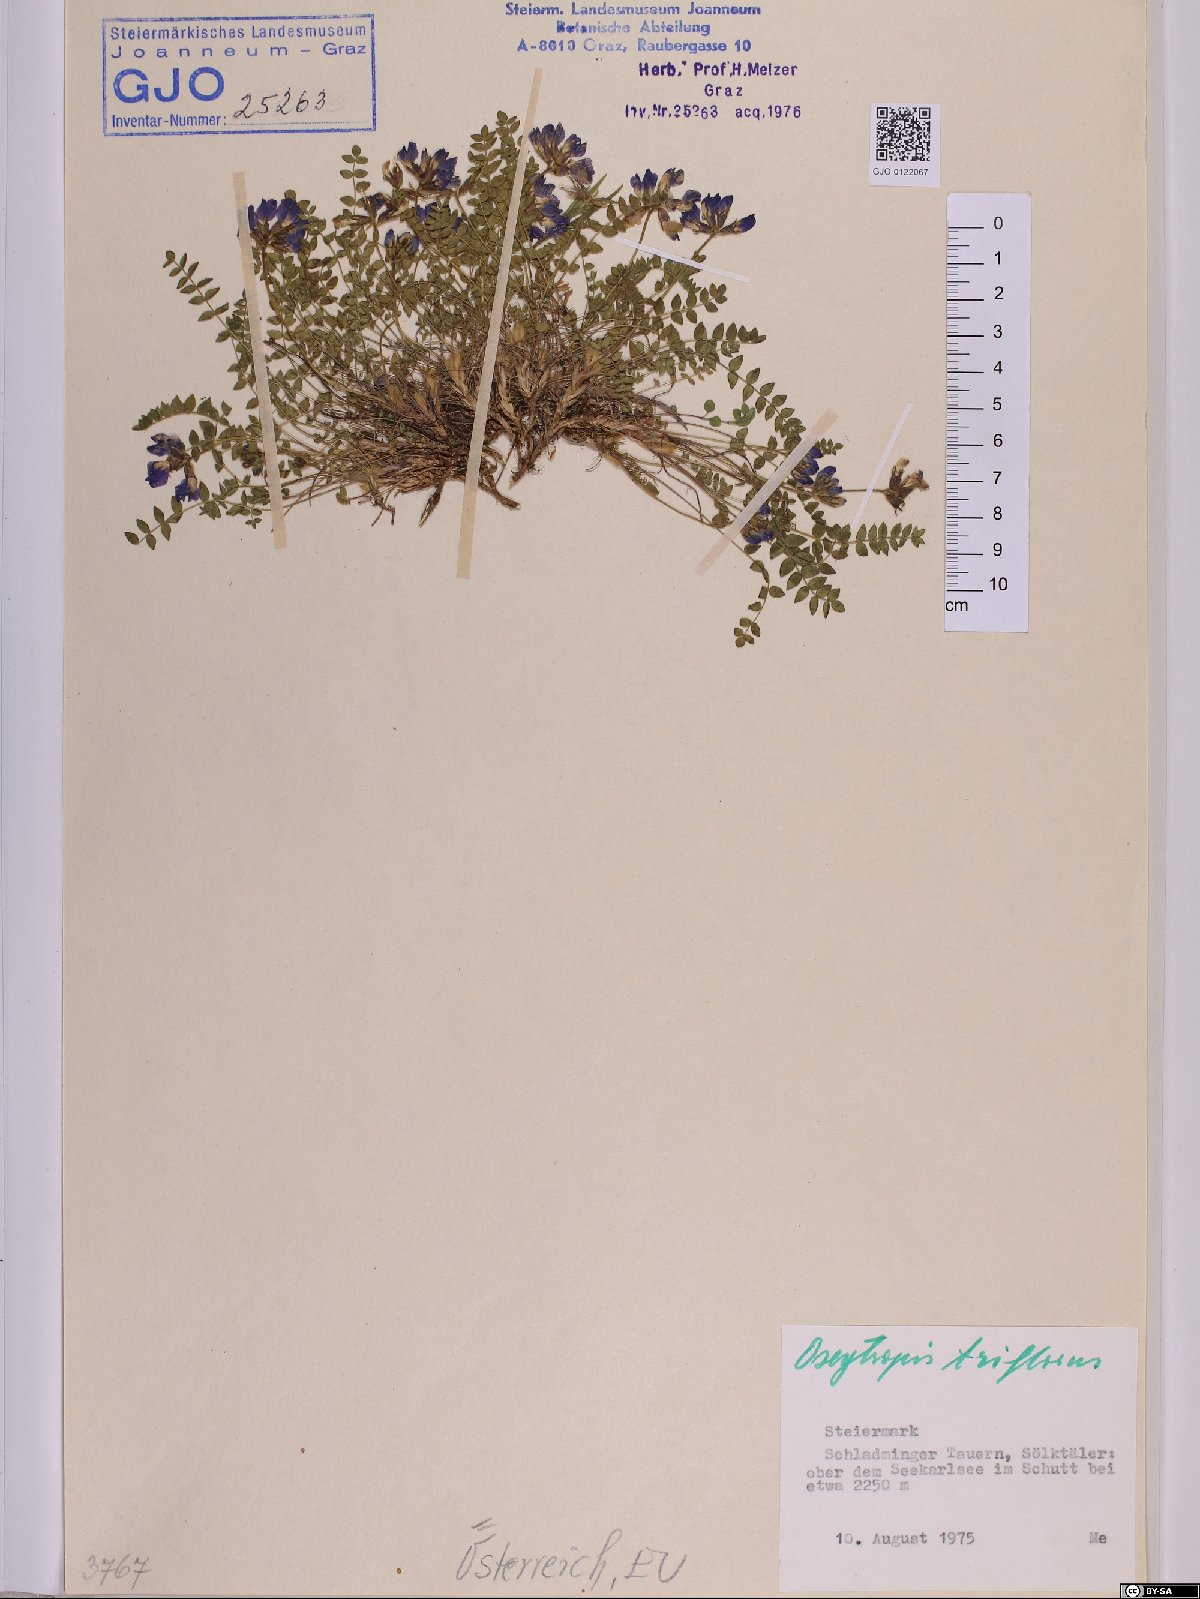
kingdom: Plantae
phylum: Tracheophyta
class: Magnoliopsida
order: Fabales
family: Fabaceae
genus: Oxytropis
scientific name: Oxytropis triflora
